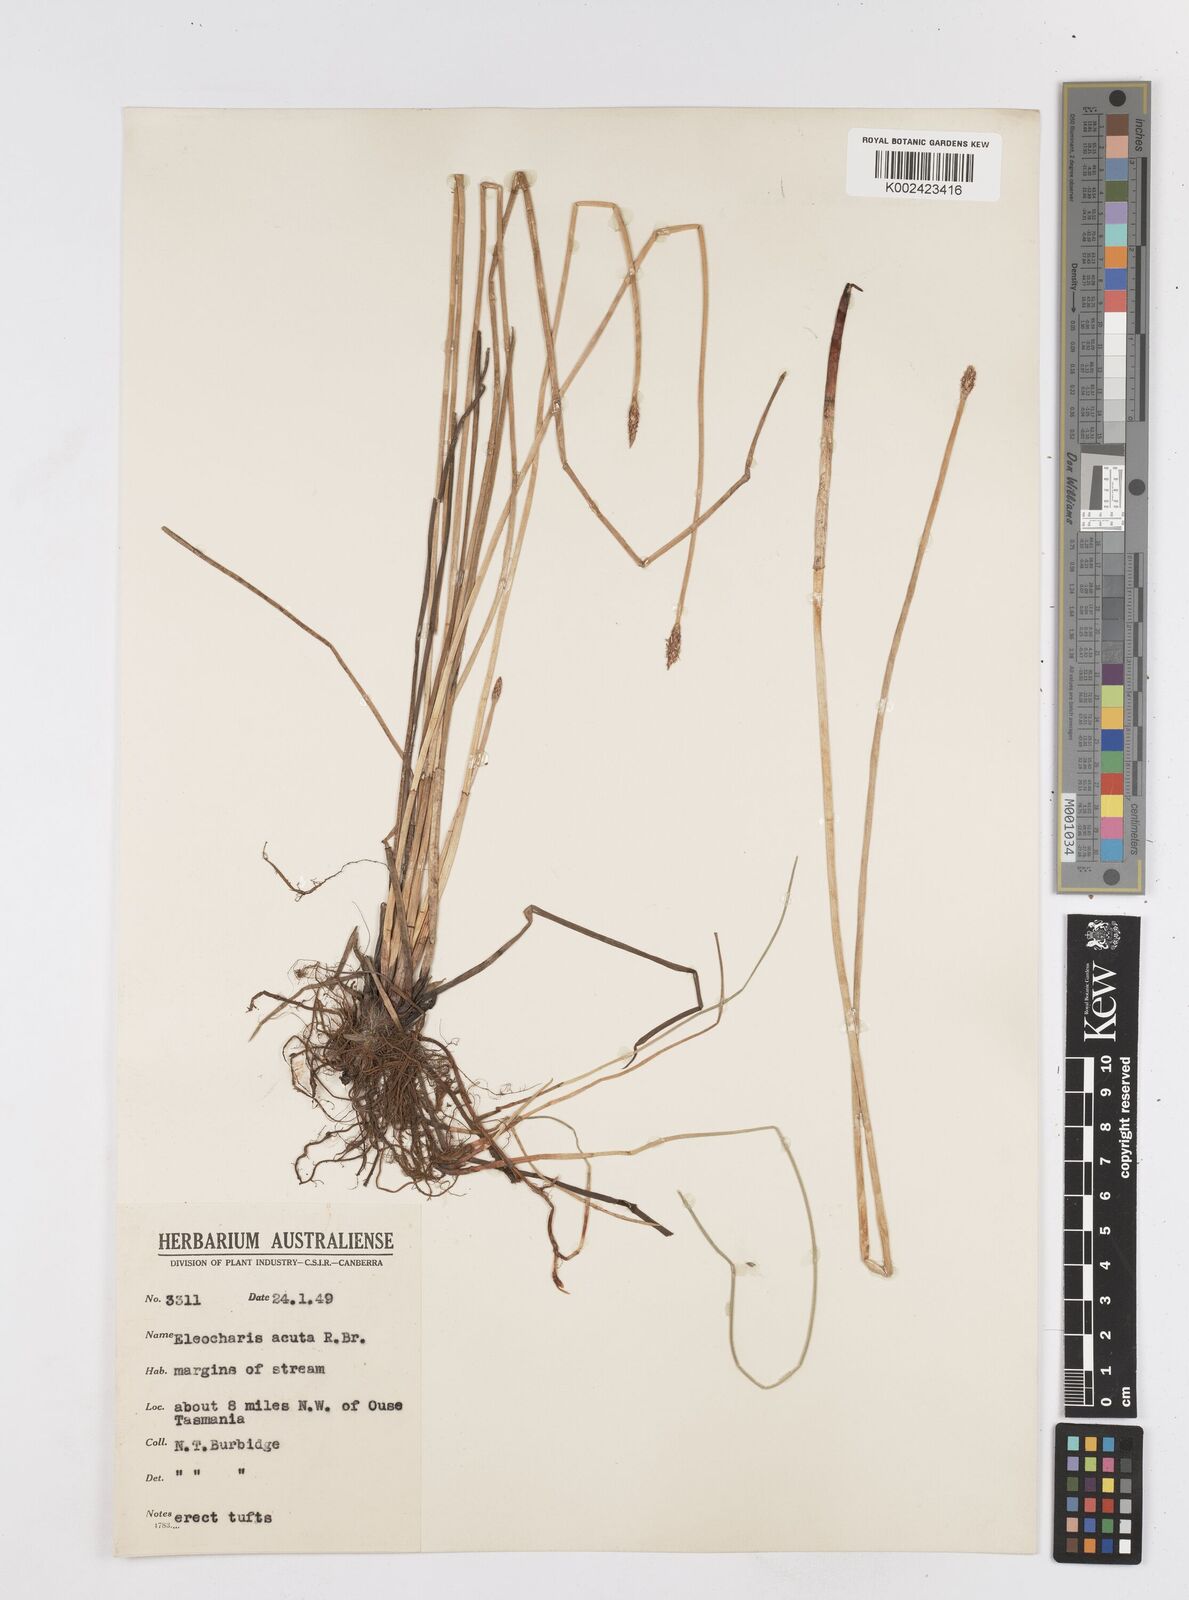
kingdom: Plantae
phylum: Tracheophyta
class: Liliopsida
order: Poales
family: Cyperaceae
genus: Eleocharis
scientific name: Eleocharis acuta
